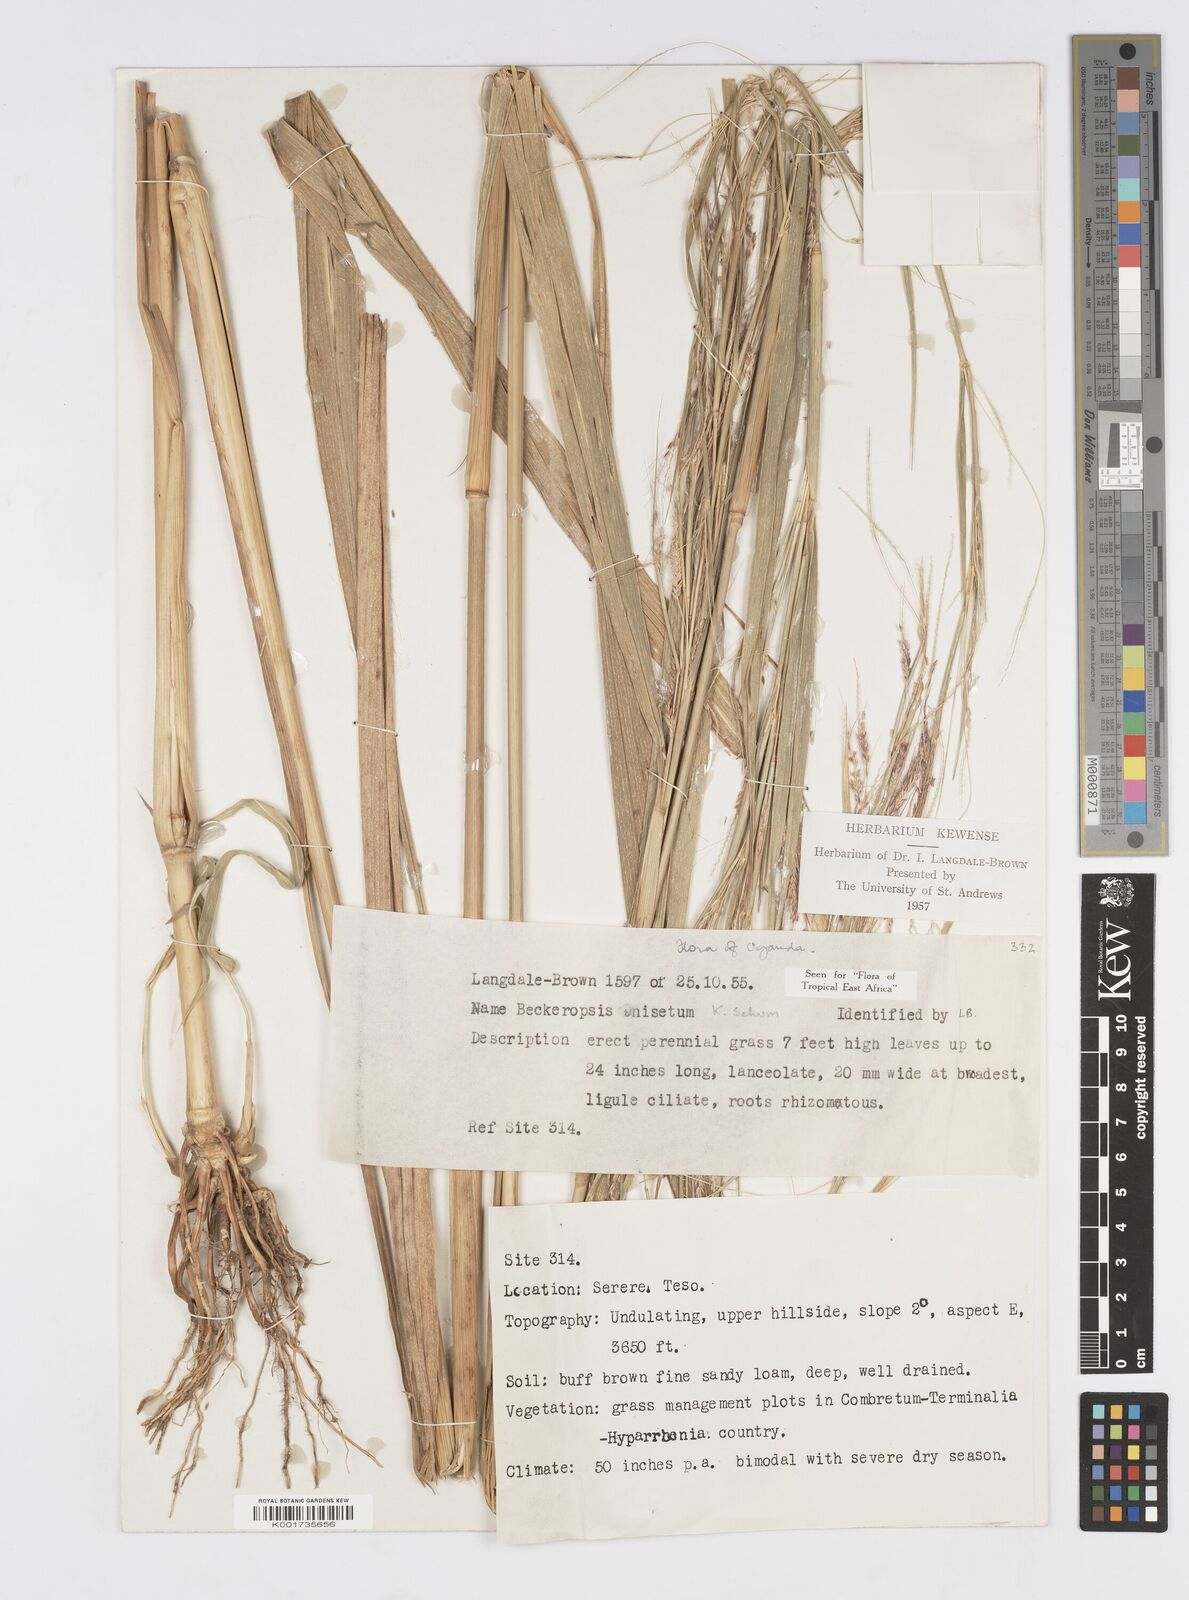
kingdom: Plantae
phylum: Tracheophyta
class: Liliopsida
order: Poales
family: Poaceae
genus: Cenchrus
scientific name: Cenchrus unisetus
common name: Natal grass
